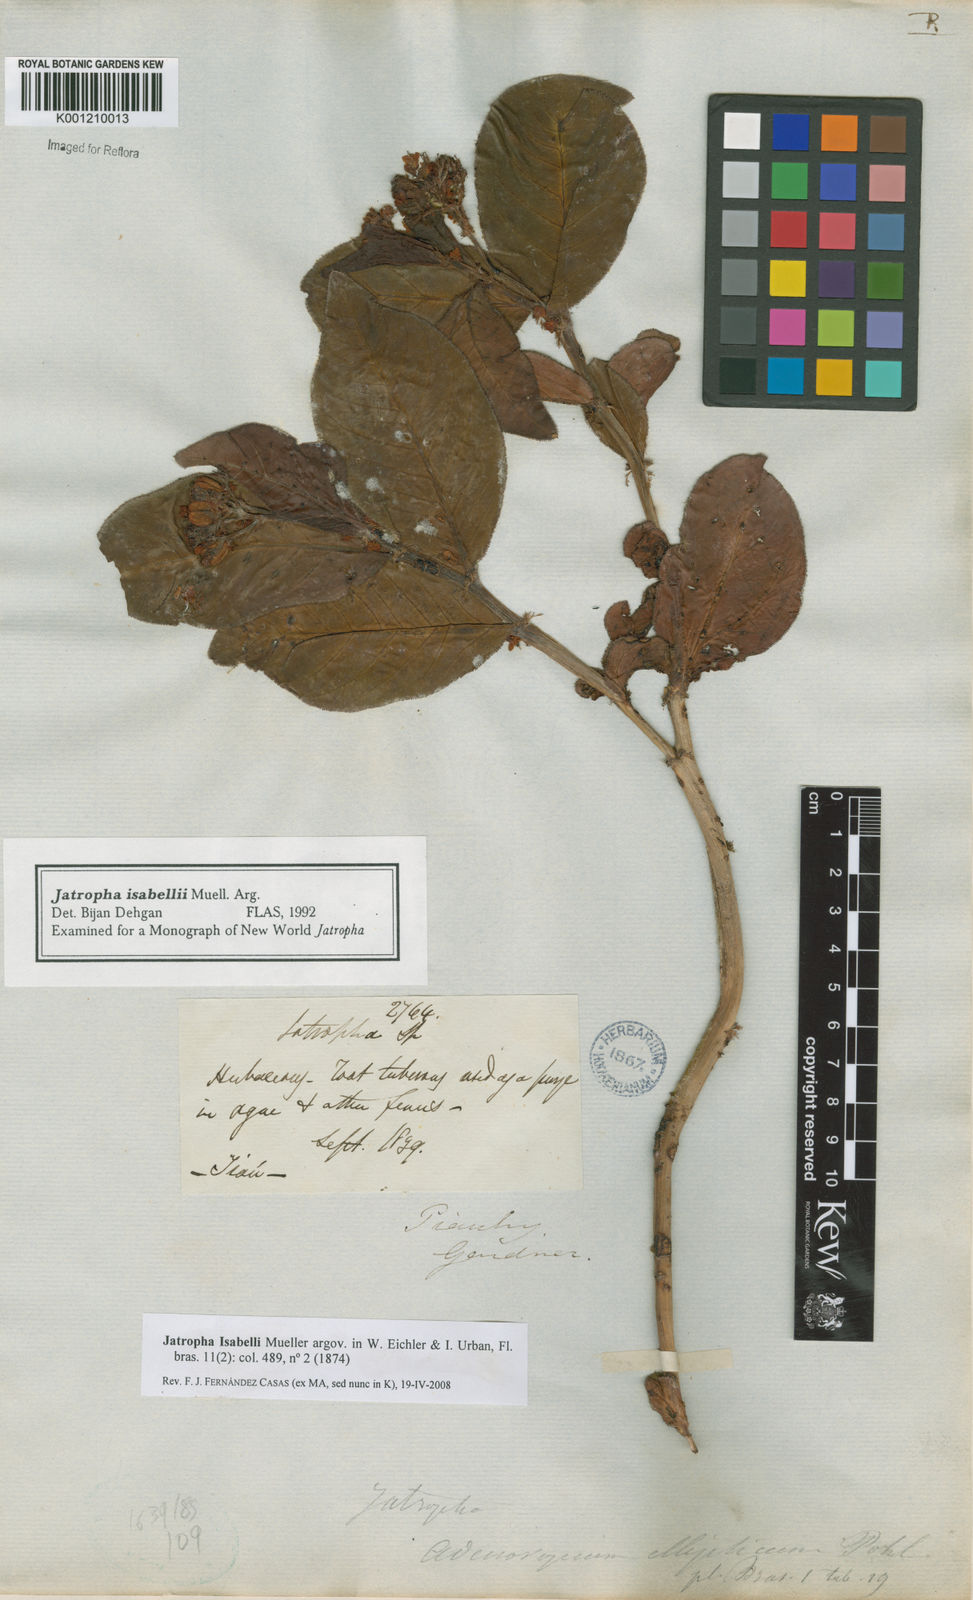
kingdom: Plantae
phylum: Tracheophyta
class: Magnoliopsida
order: Malpighiales
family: Euphorbiaceae
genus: Jatropha
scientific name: Jatropha
